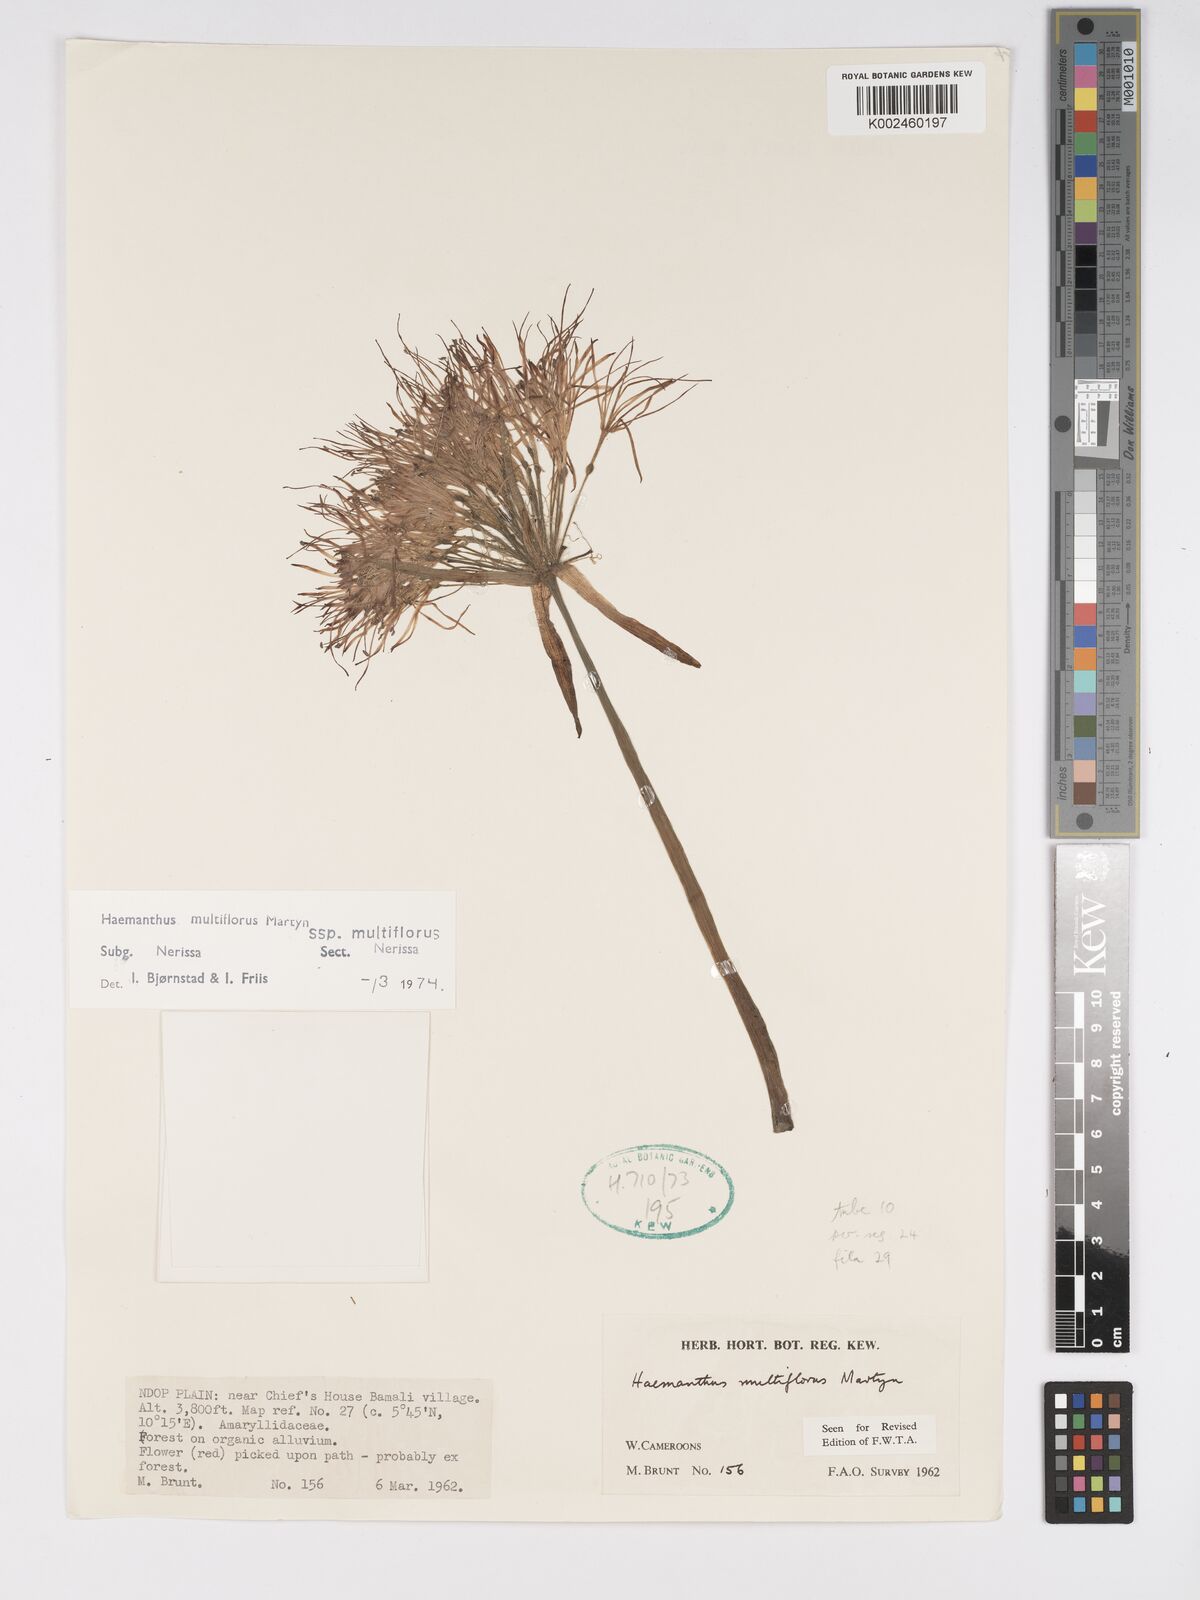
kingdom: Plantae
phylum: Tracheophyta
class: Liliopsida
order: Asparagales
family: Amaryllidaceae
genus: Scadoxus
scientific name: Scadoxus multiflorus
